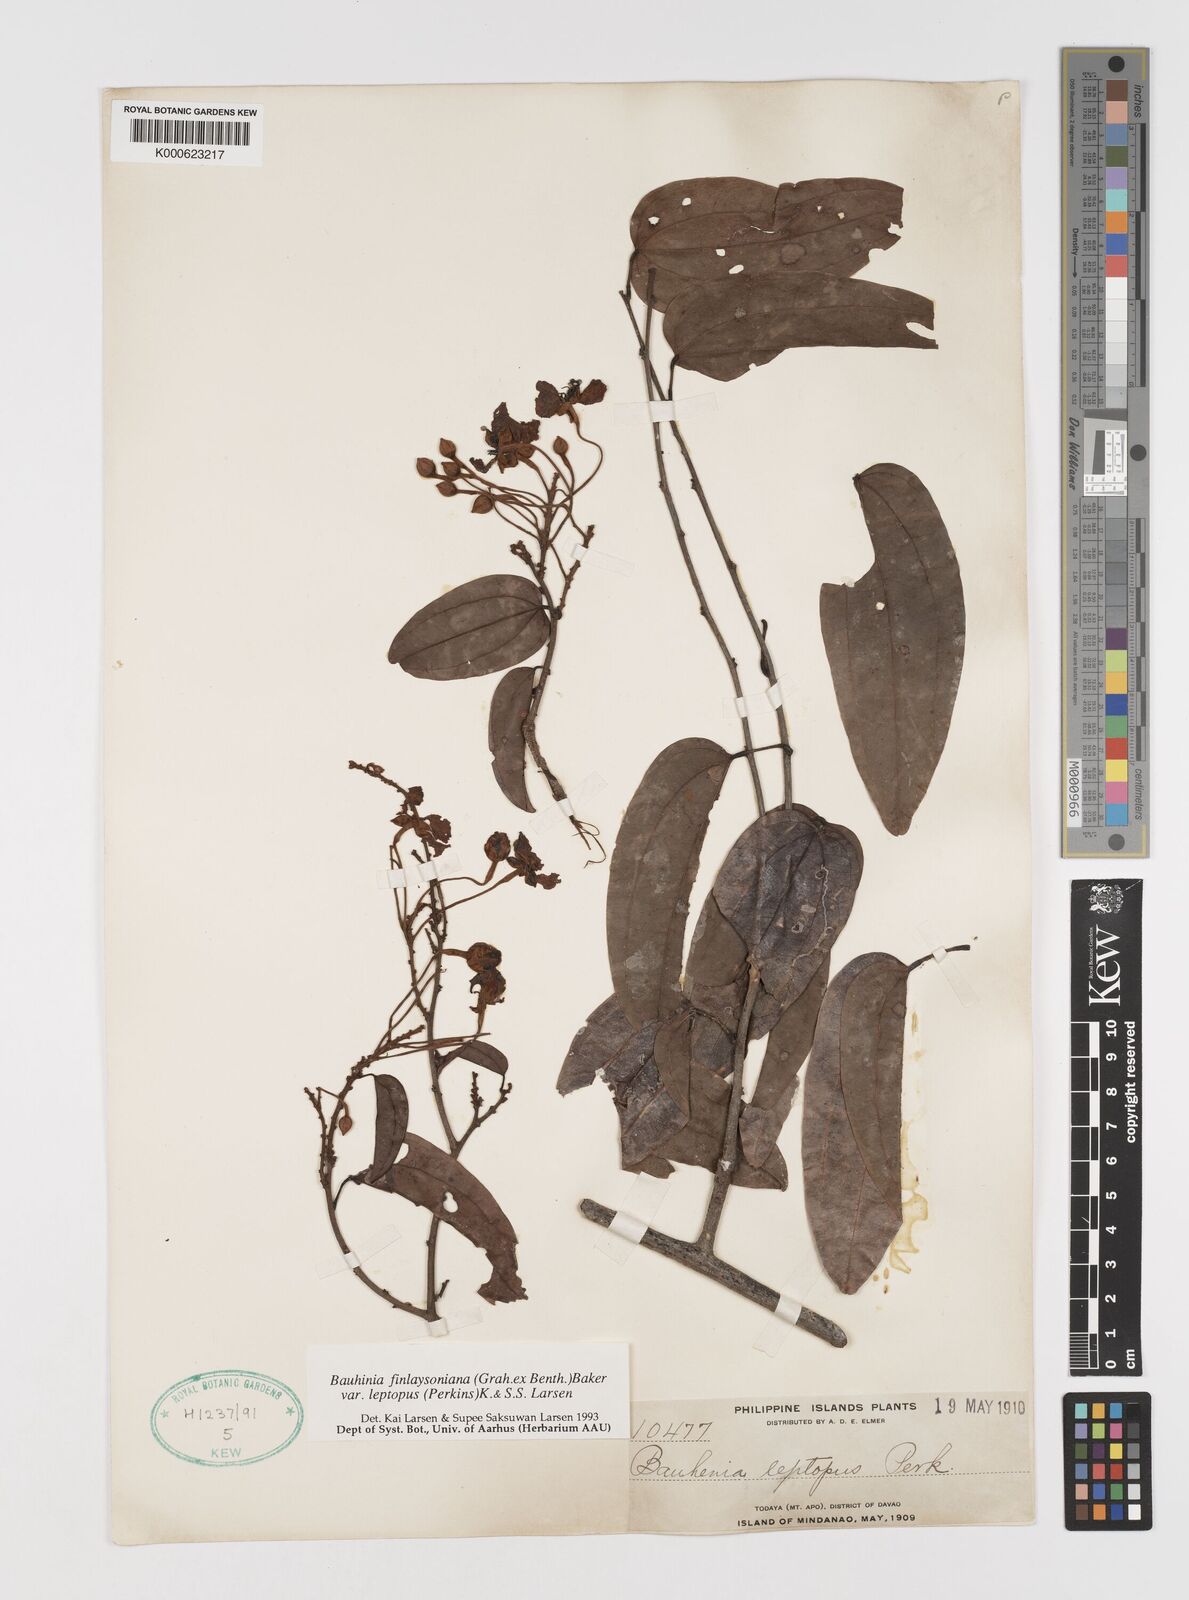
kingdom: Plantae
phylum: Tracheophyta
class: Magnoliopsida
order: Fabales
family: Fabaceae
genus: Phanera
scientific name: Phanera finlaysoniana
